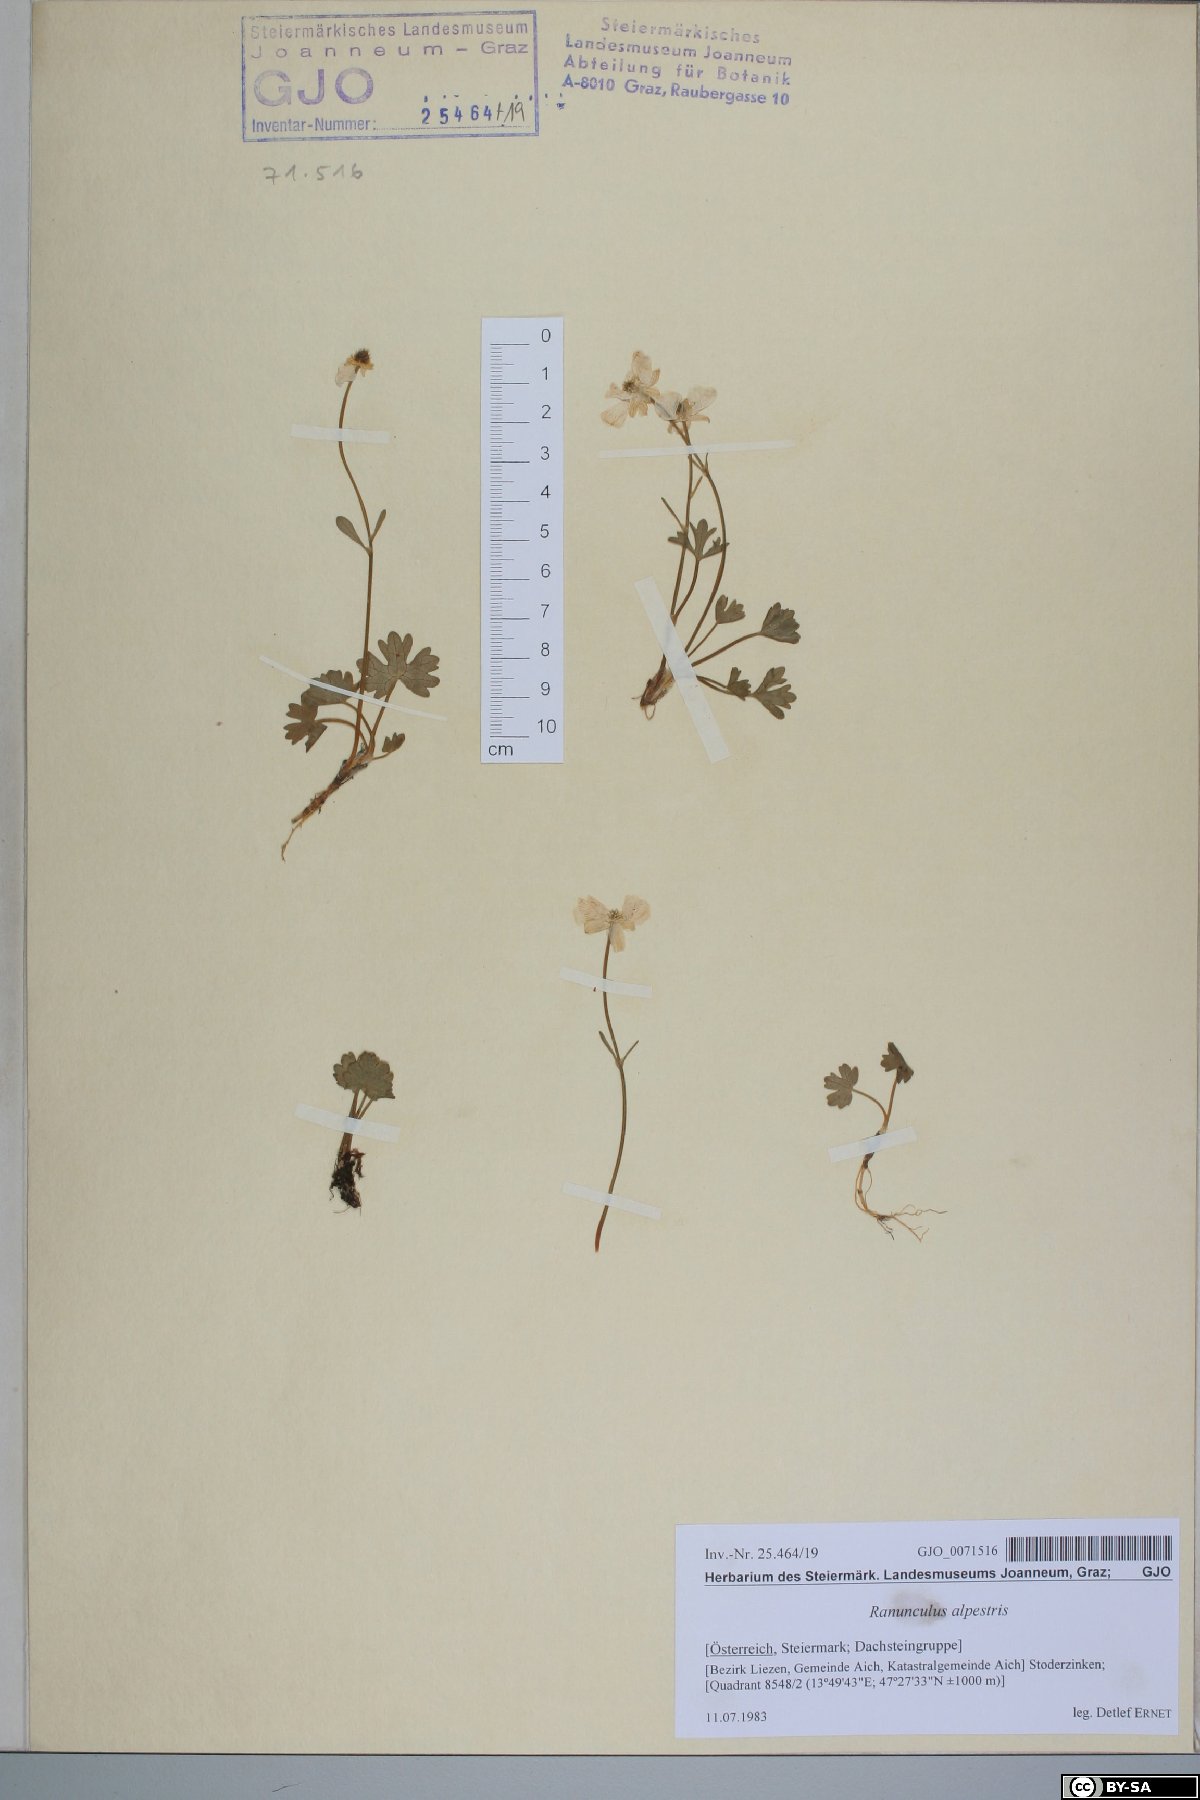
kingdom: Plantae
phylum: Tracheophyta
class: Magnoliopsida
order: Ranunculales
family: Ranunculaceae
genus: Ranunculus
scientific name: Ranunculus alpestris
